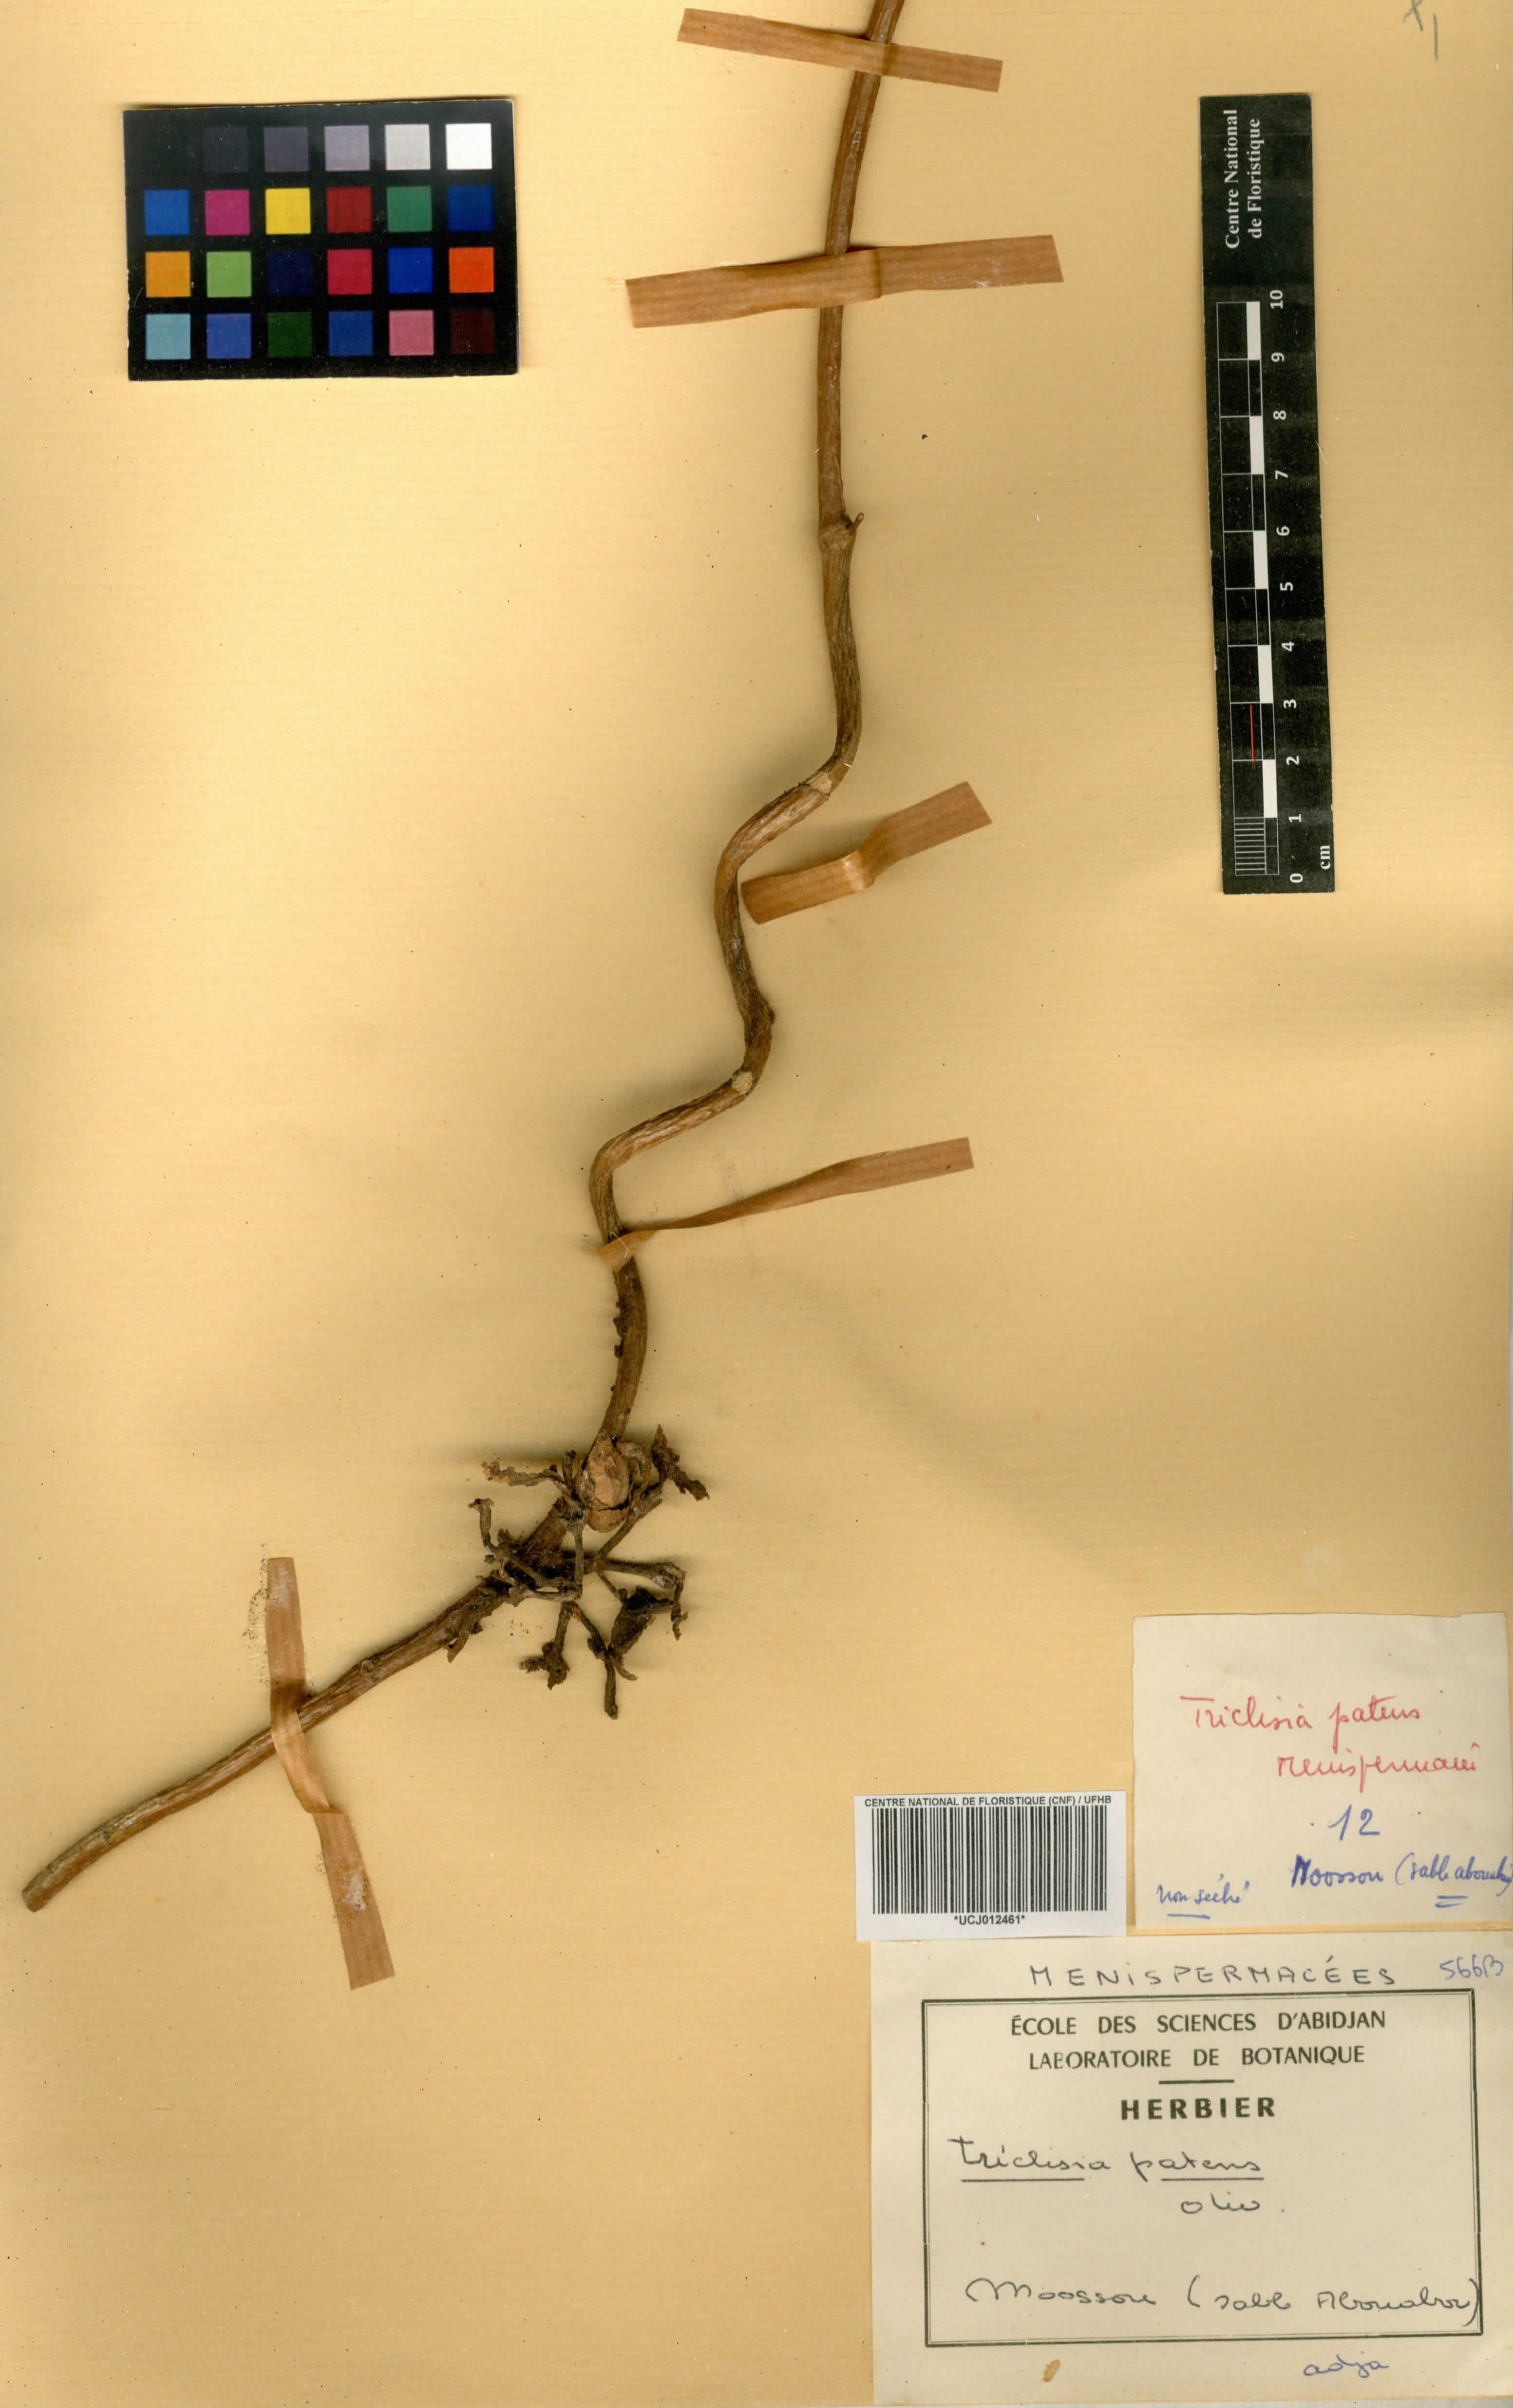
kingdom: Plantae
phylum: Tracheophyta
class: Magnoliopsida
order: Ranunculales
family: Menispermaceae
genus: Triclisia
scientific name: Triclisia patens
